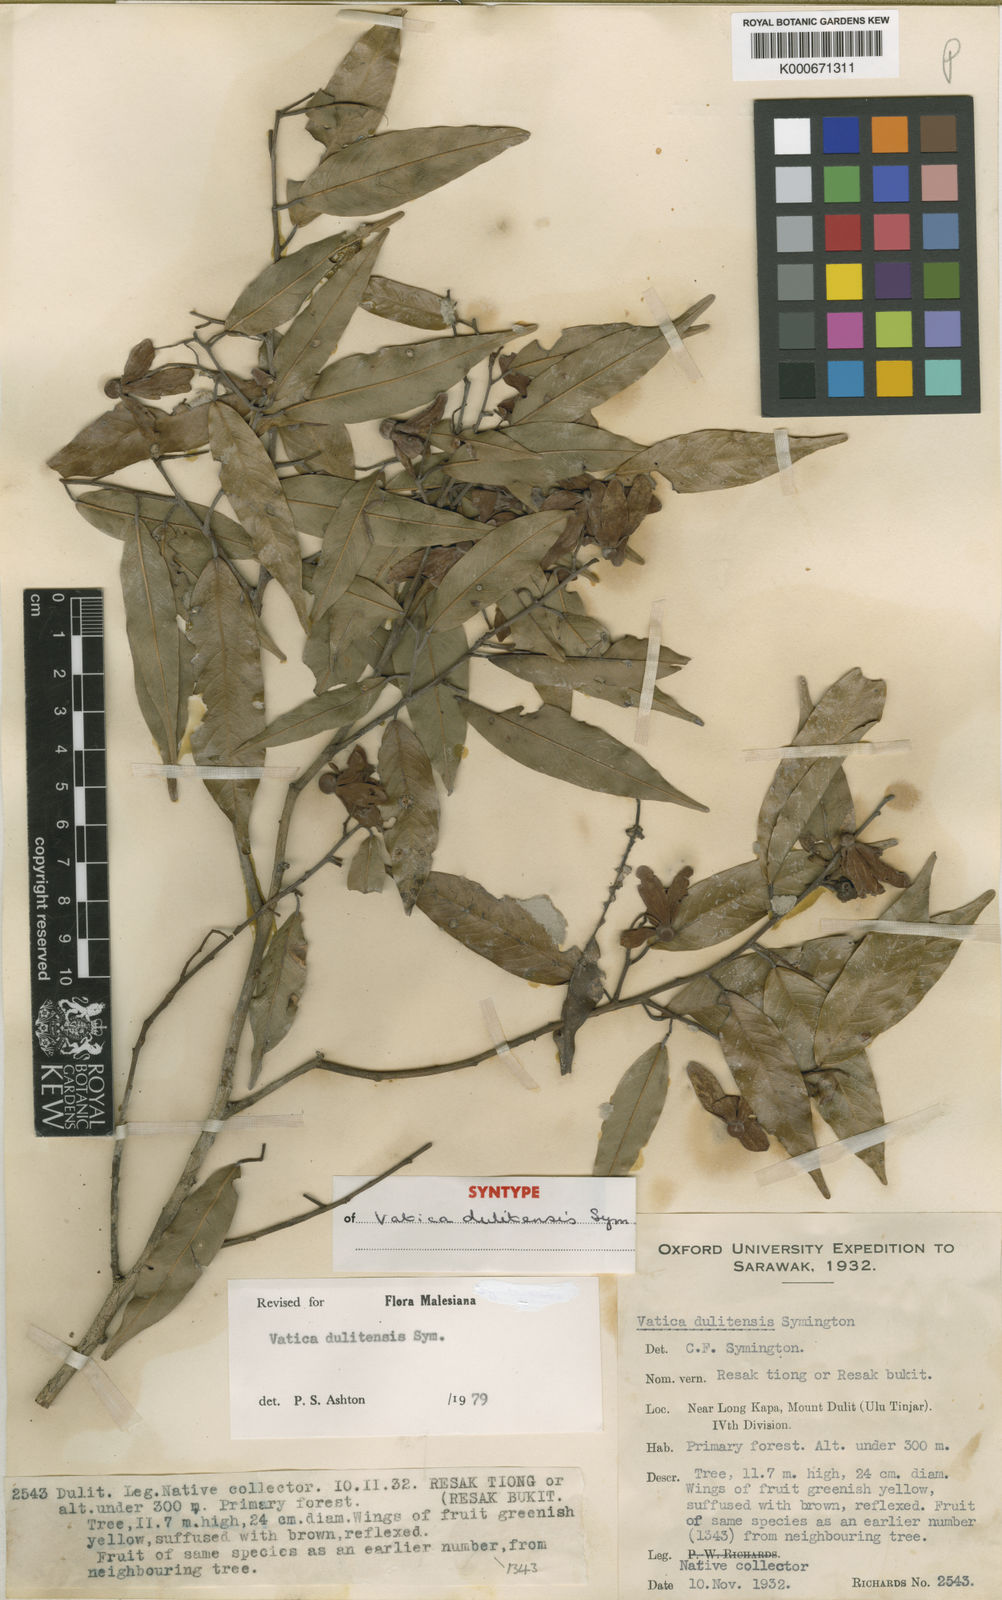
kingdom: Plantae
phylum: Tracheophyta
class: Magnoliopsida
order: Malvales
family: Dipterocarpaceae
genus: Vatica
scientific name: Vatica dulitensis
